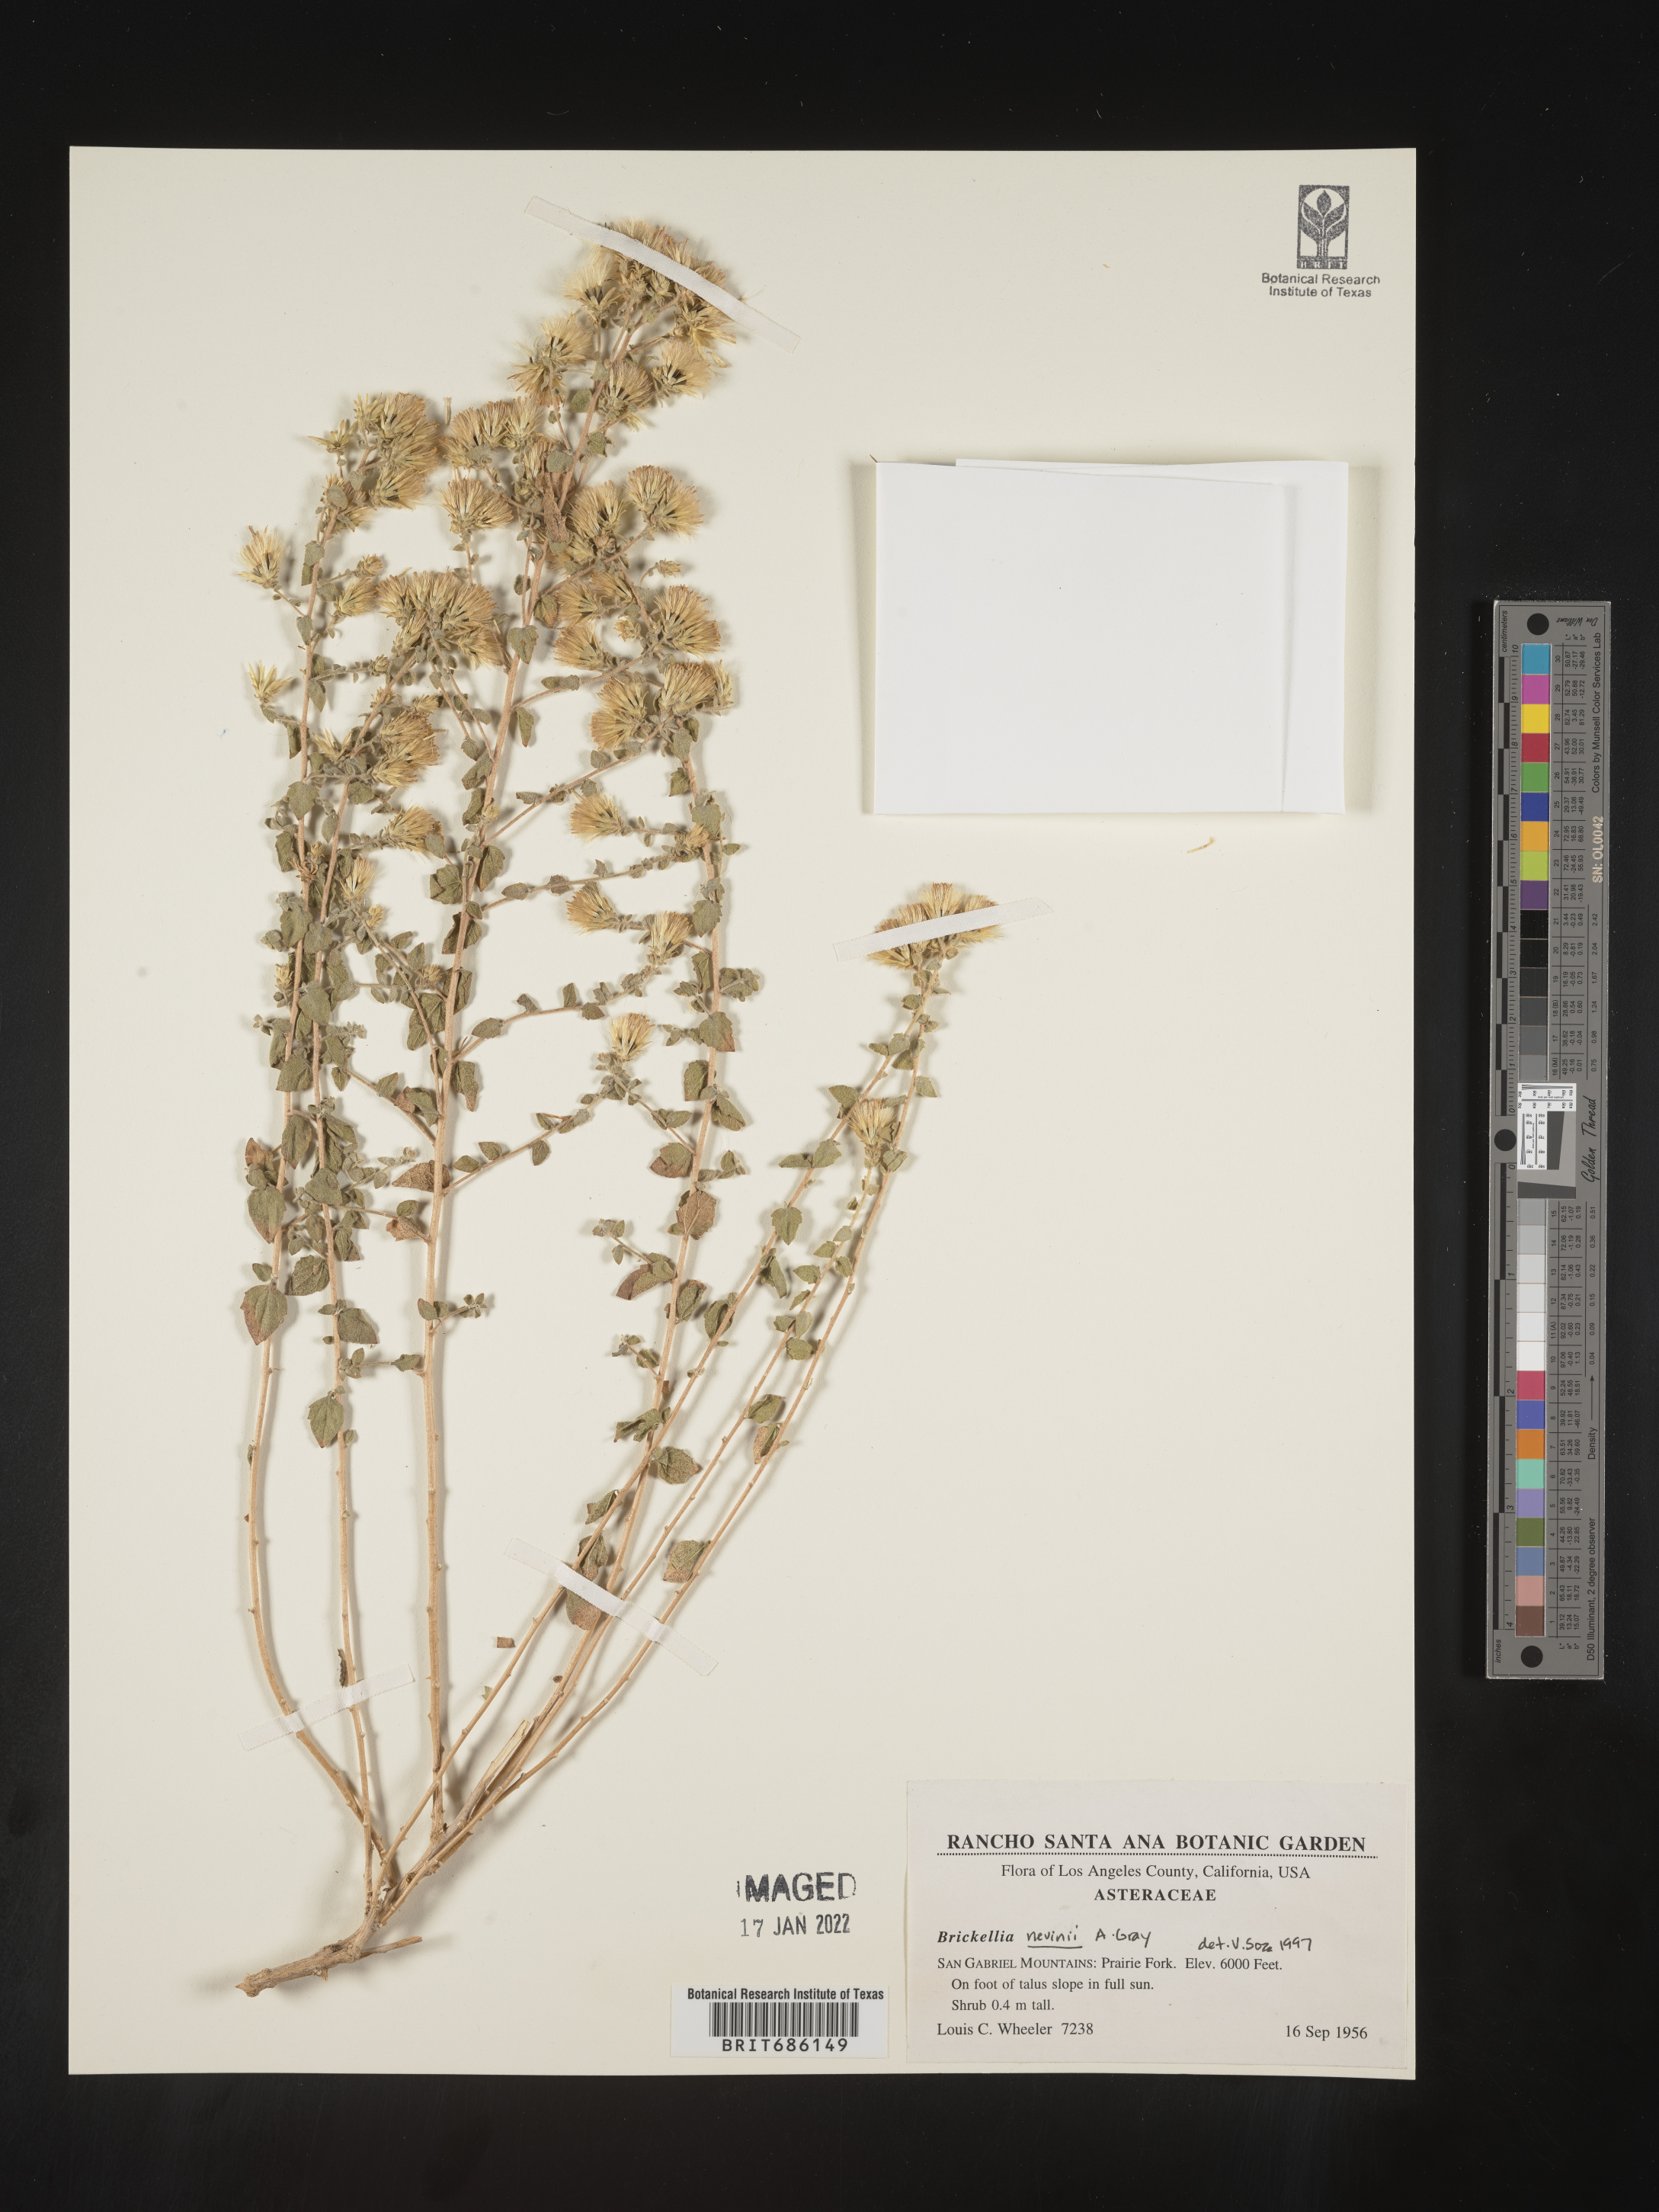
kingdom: Plantae
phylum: Tracheophyta
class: Magnoliopsida
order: Asterales
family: Asteraceae
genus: Brickellia
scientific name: Brickellia nevinii
